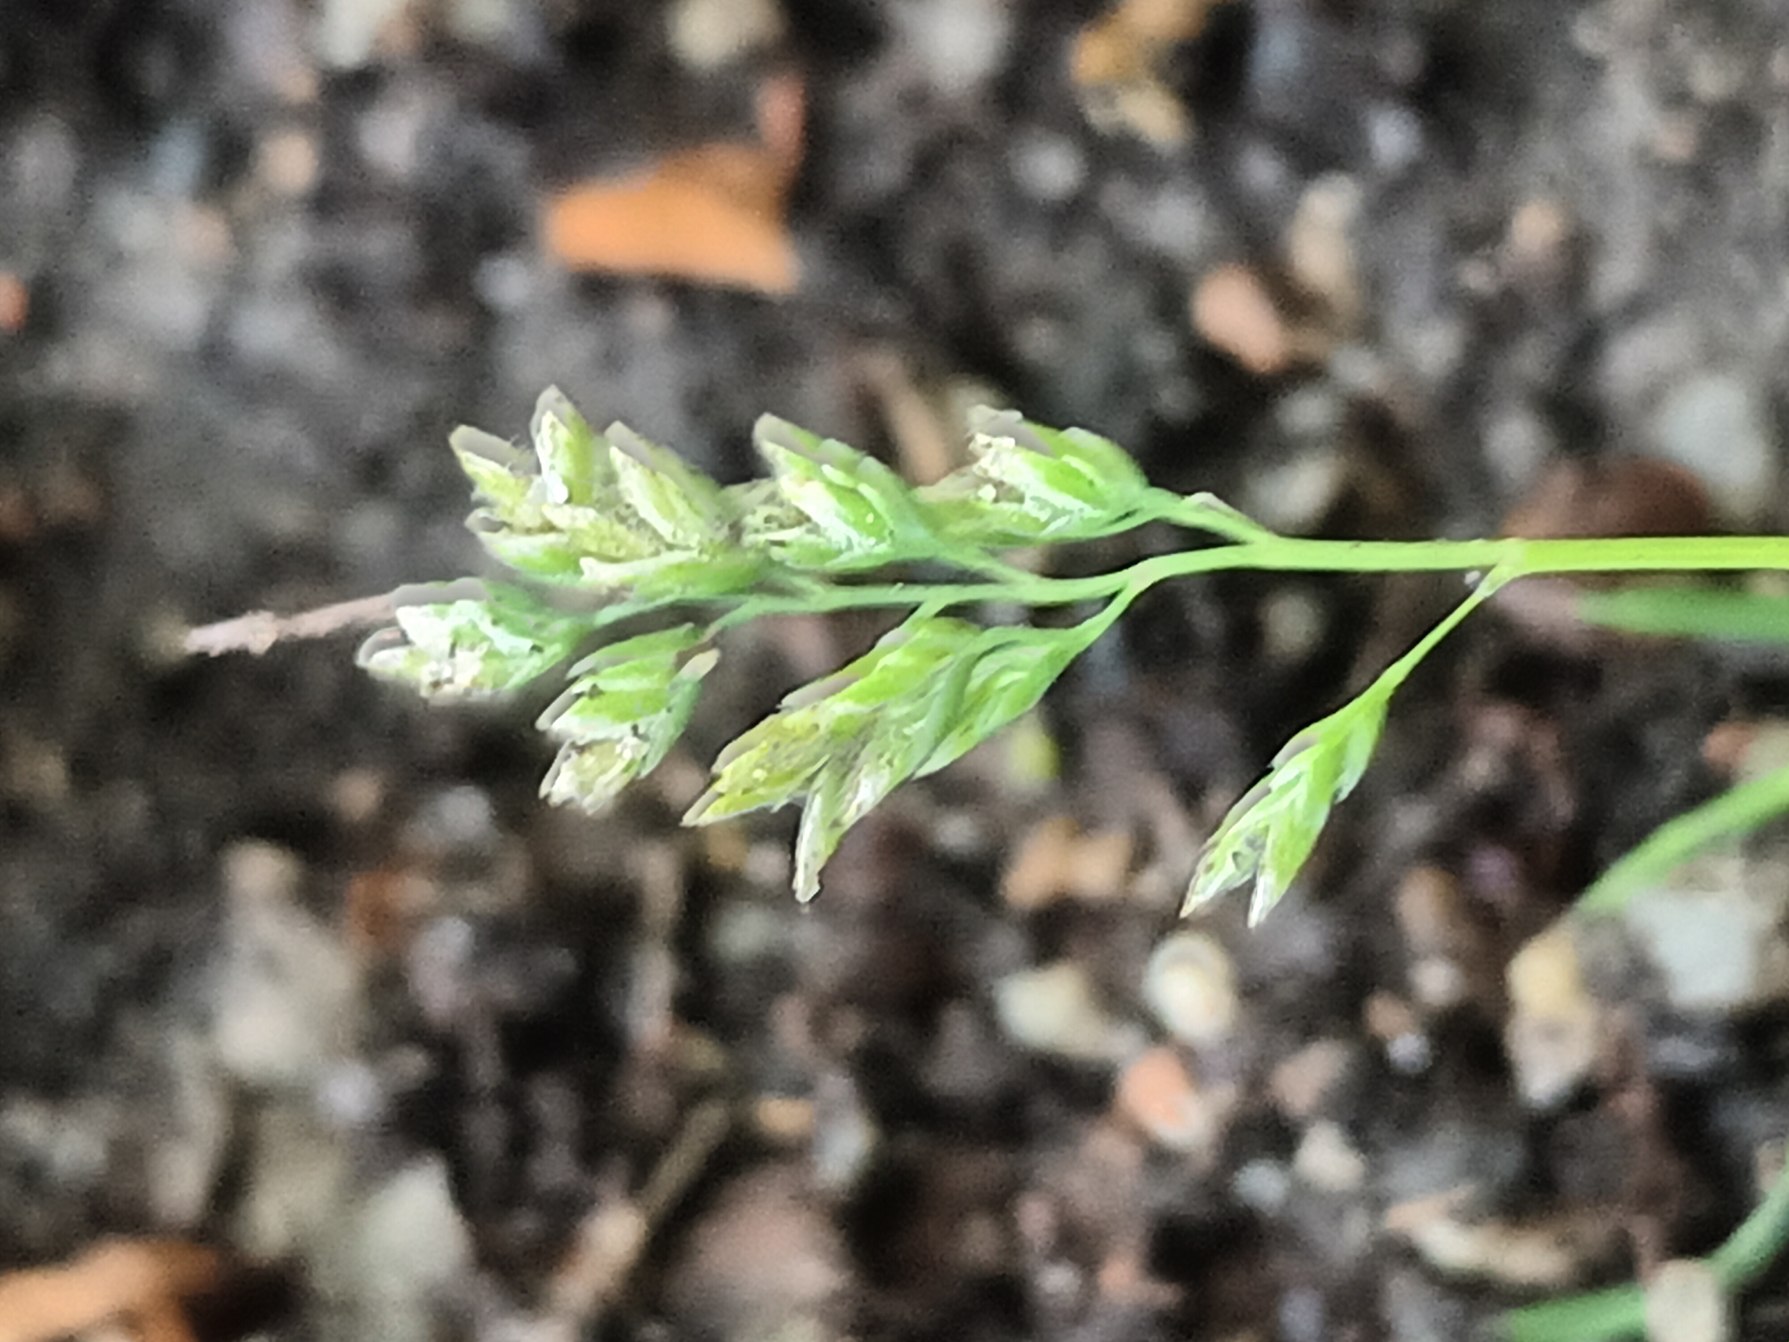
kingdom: Plantae
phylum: Tracheophyta
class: Liliopsida
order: Poales
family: Poaceae
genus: Poa
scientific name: Poa annua
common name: Enårig rapgræs
